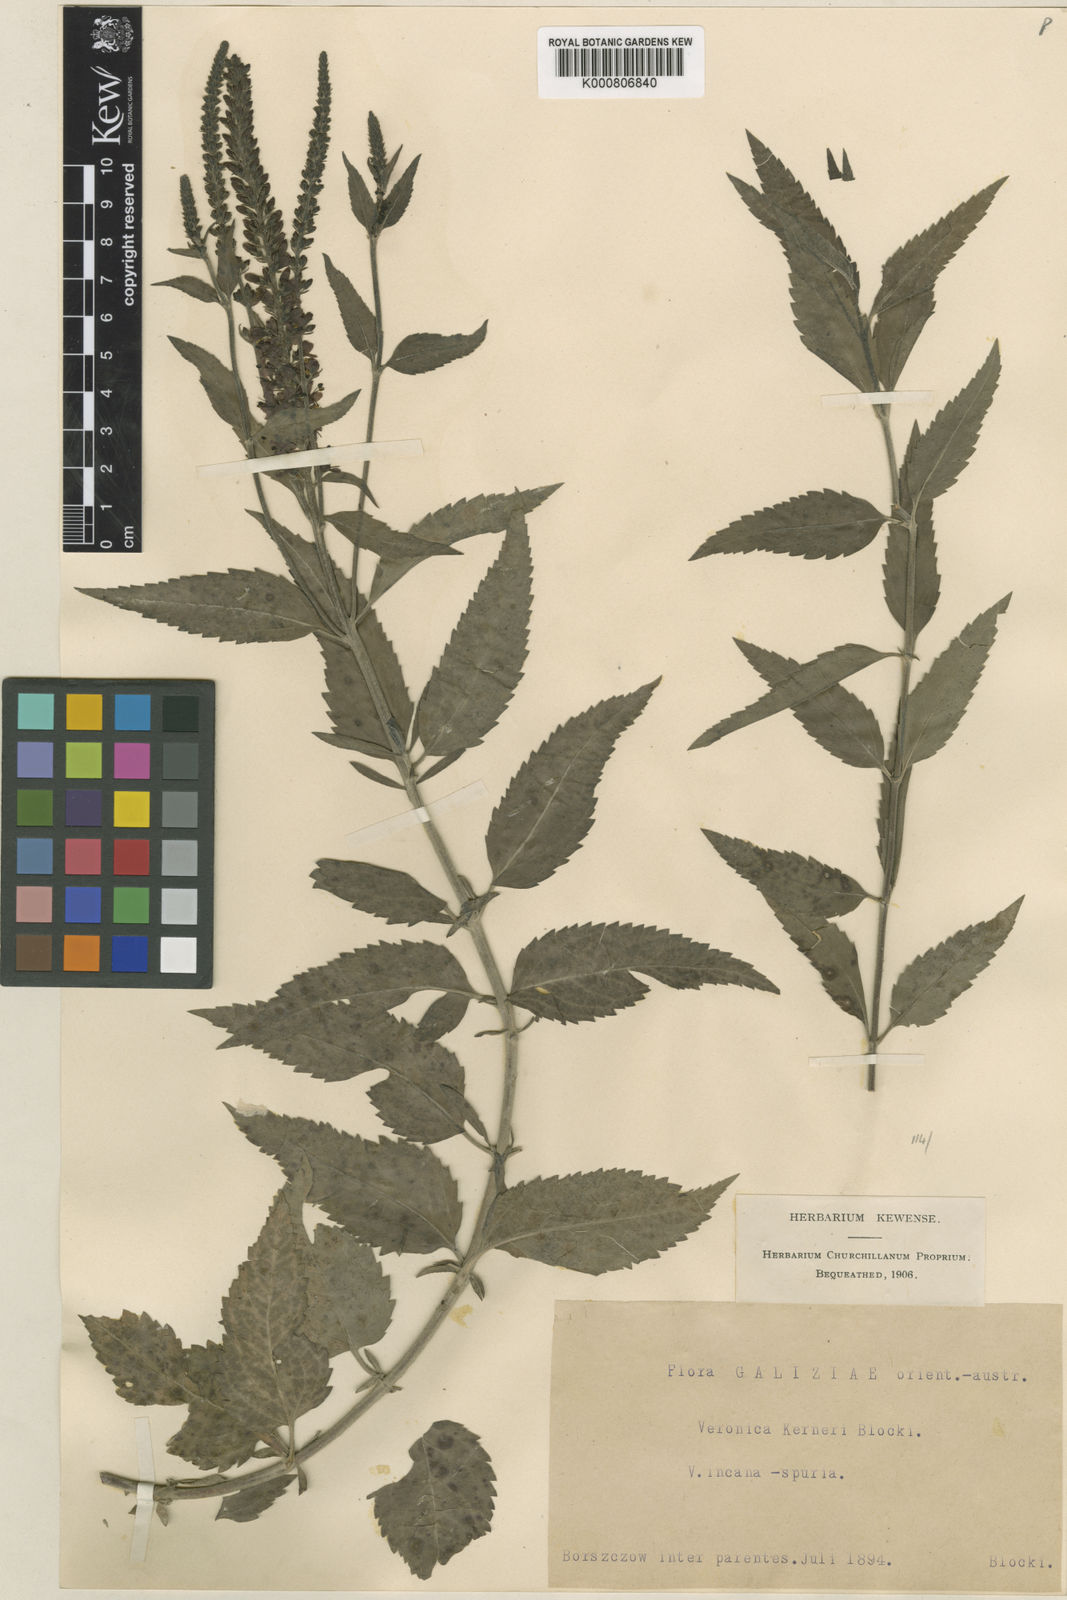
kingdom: Plantae
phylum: Tracheophyta
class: Magnoliopsida
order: Lamiales
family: Plantaginaceae
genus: Veronica
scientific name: Veronica
